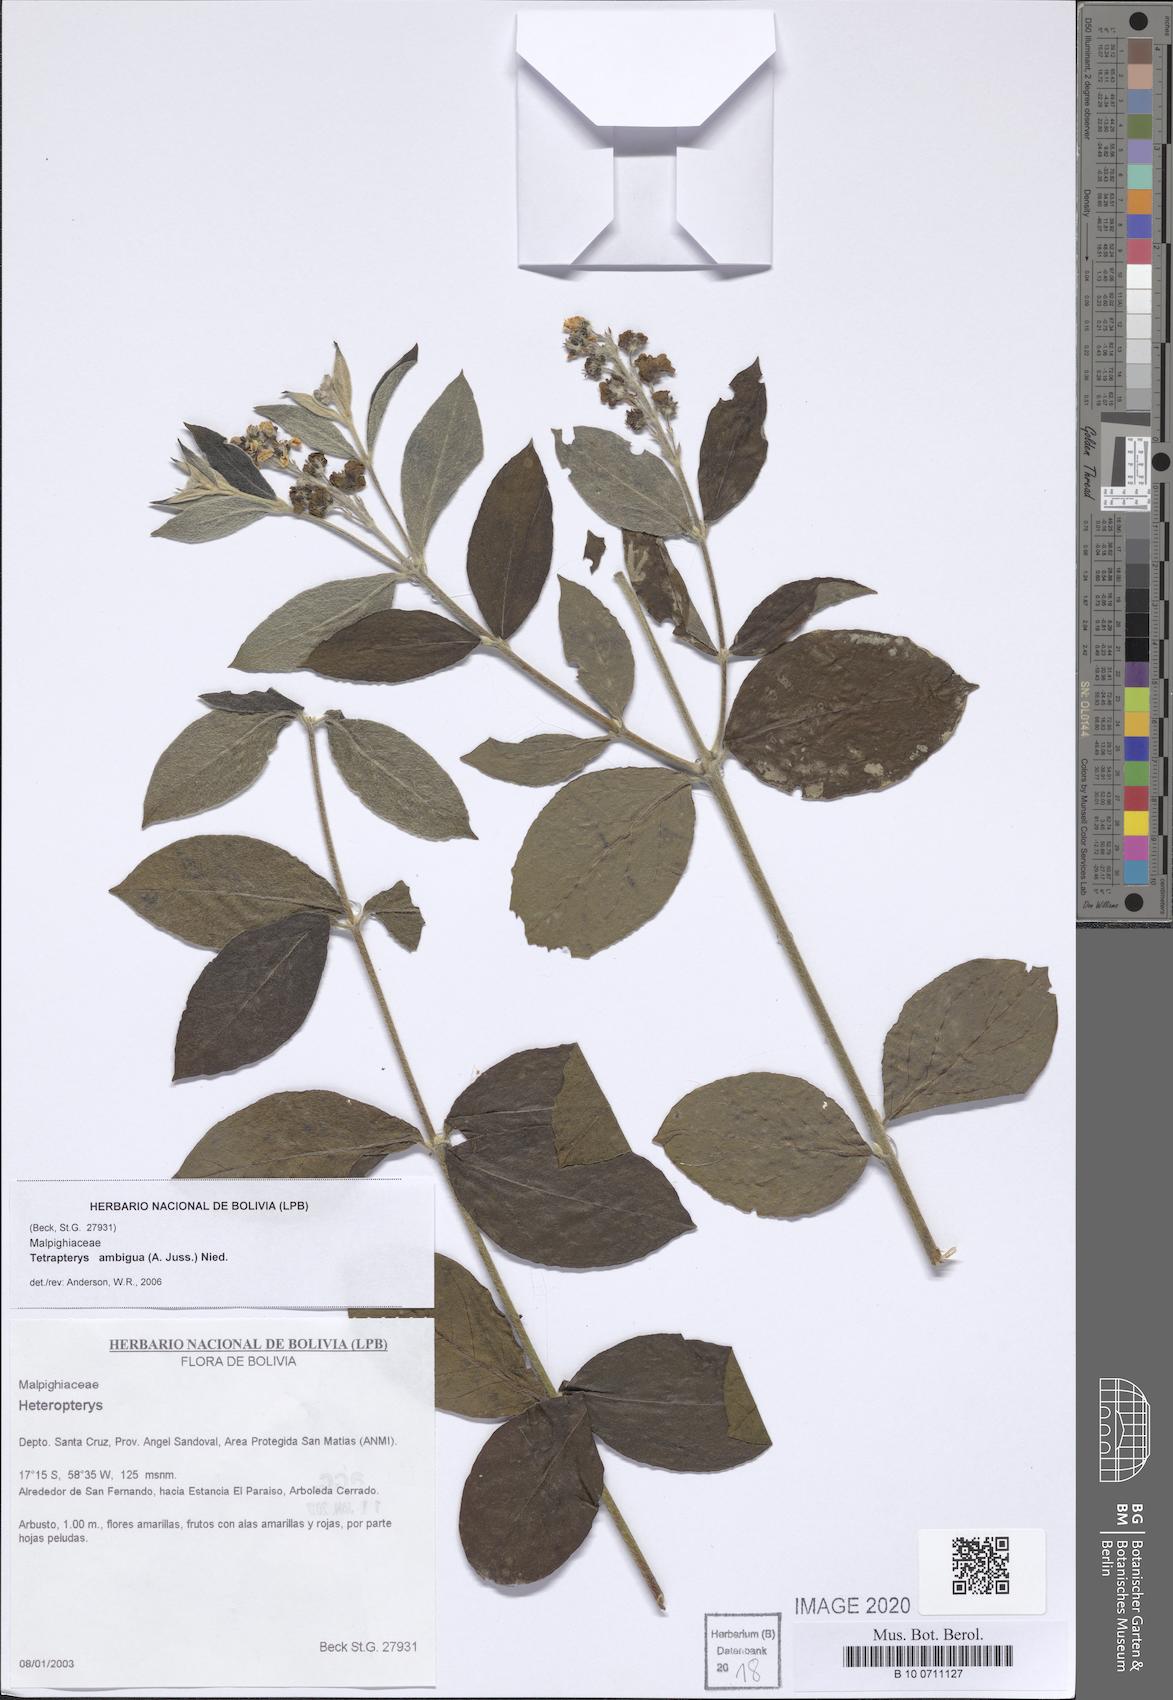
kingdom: Plantae
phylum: Tracheophyta
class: Magnoliopsida
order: Malpighiales
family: Malpighiaceae
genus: Glicophyllum
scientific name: Glicophyllum ambiguum
